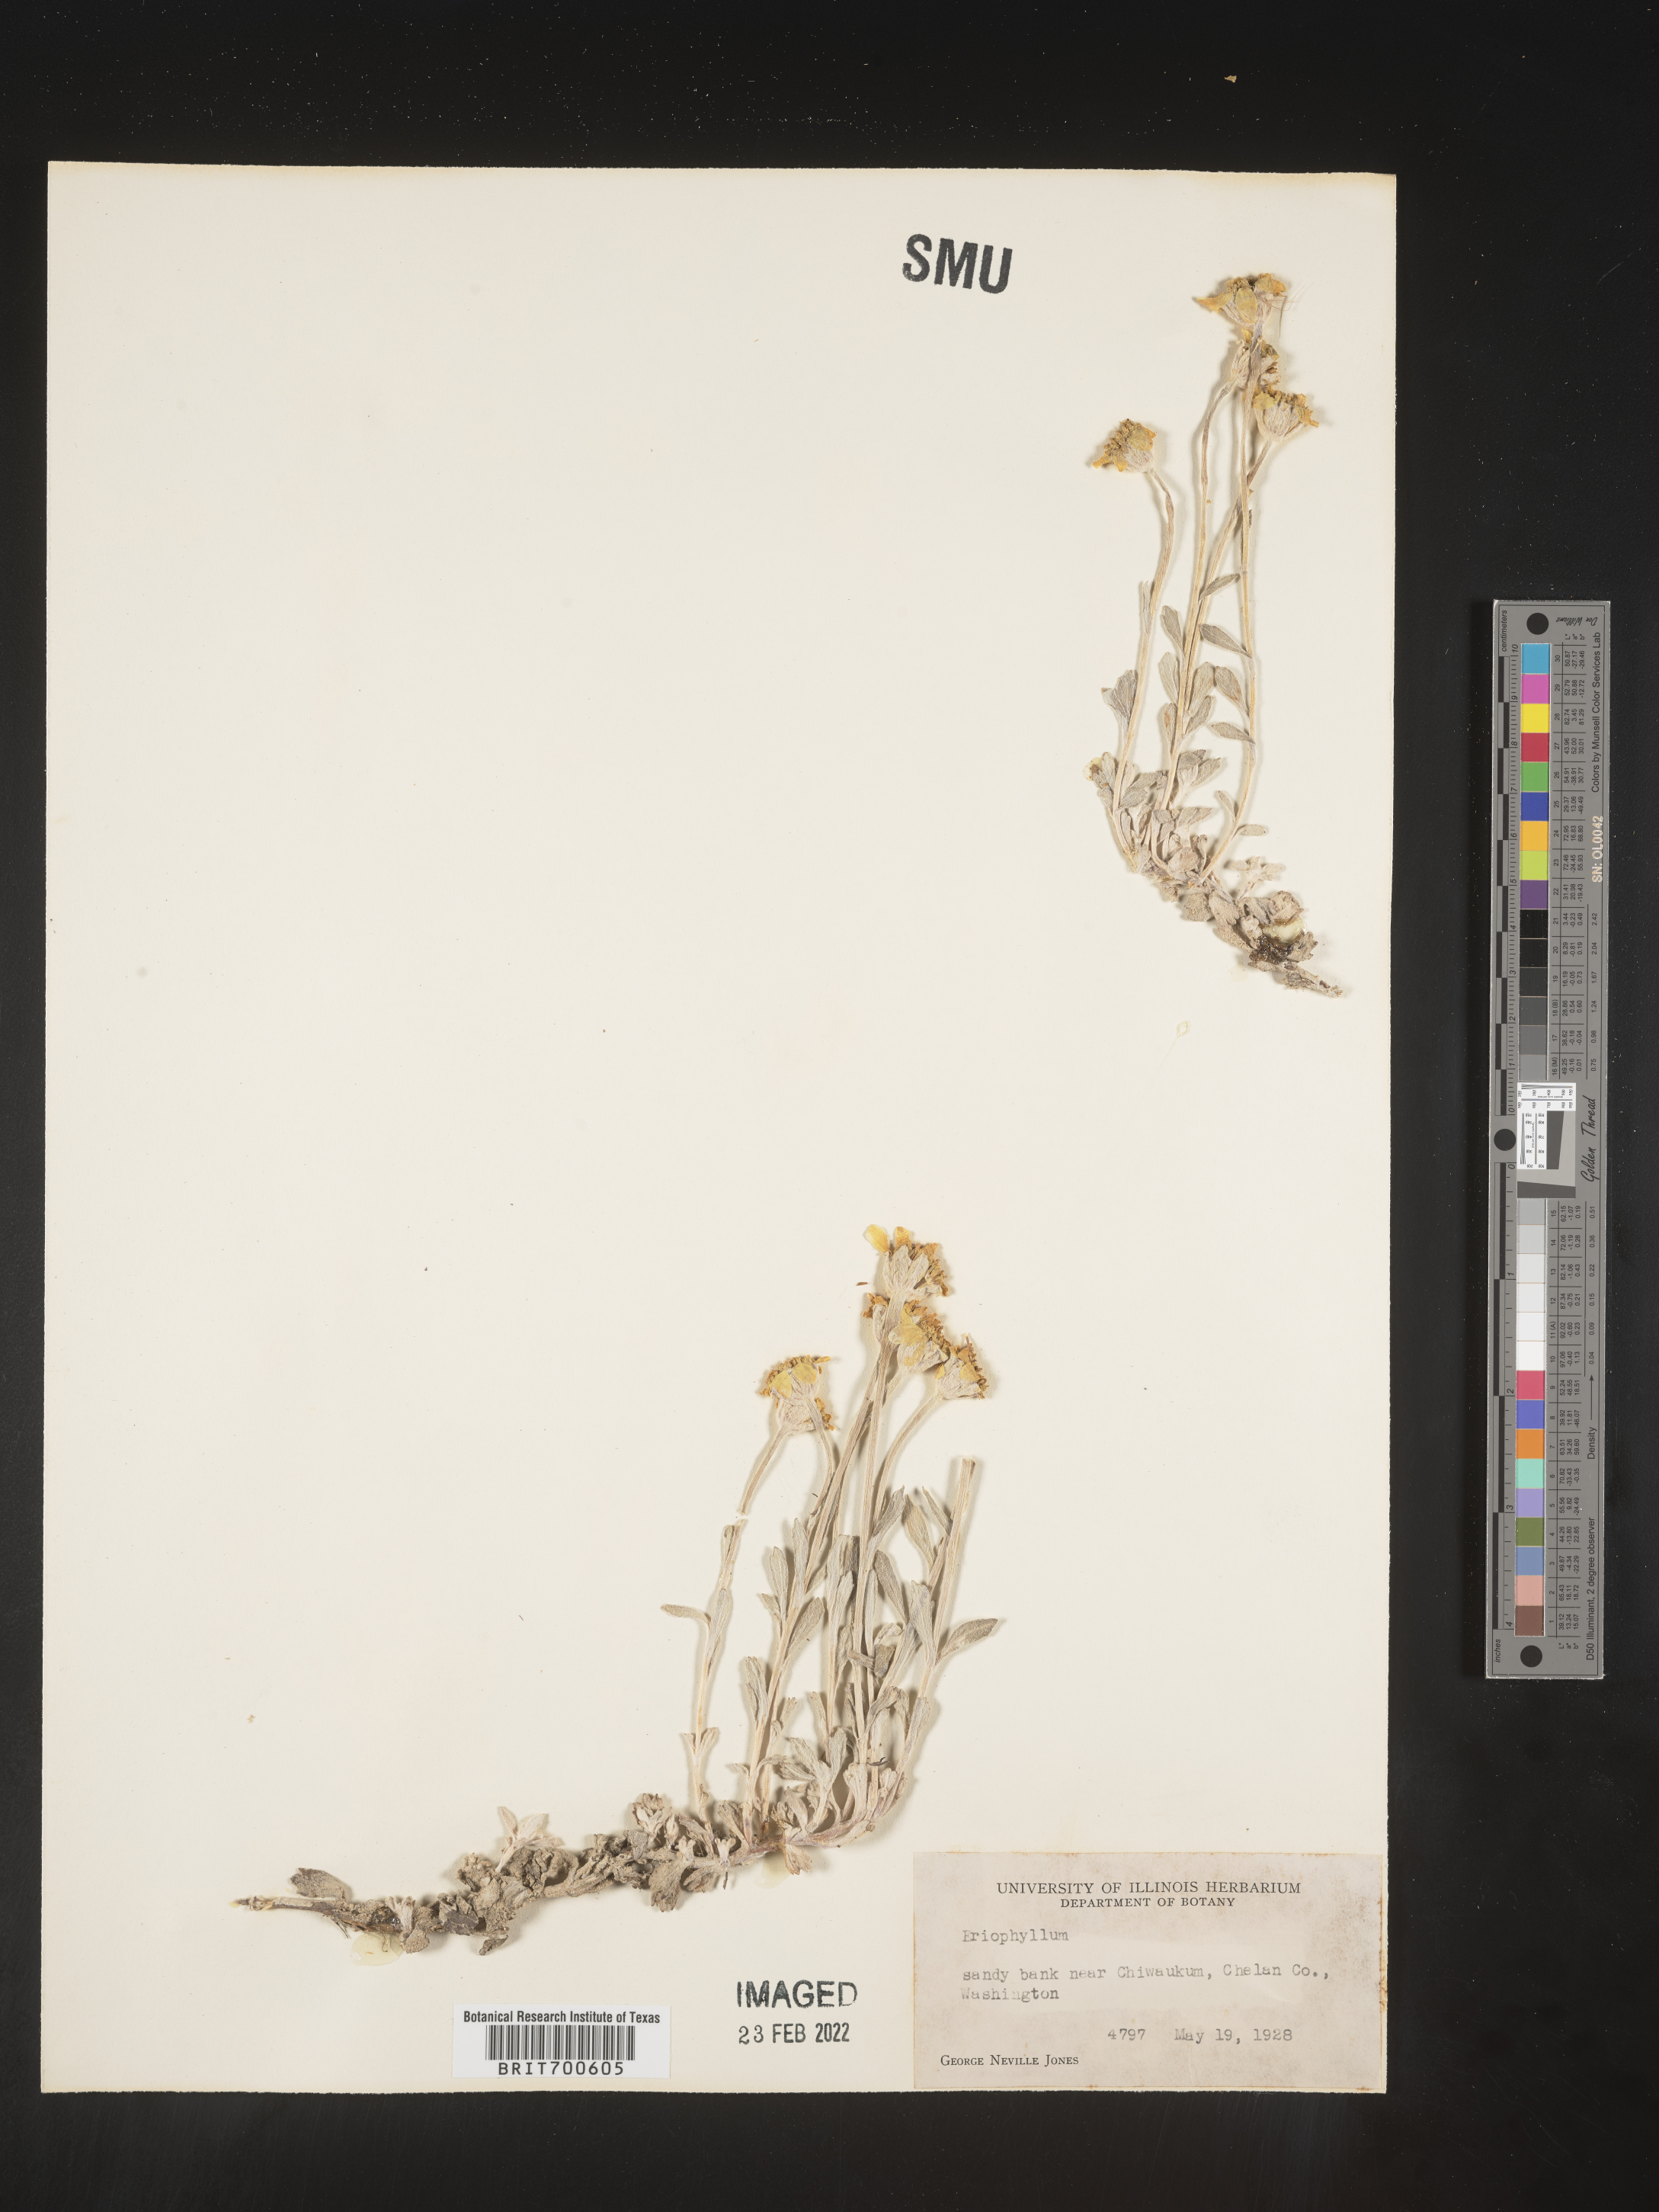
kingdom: Plantae
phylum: Tracheophyta
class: Magnoliopsida
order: Asterales
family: Asteraceae
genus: Eriophyllum
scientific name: Eriophyllum
